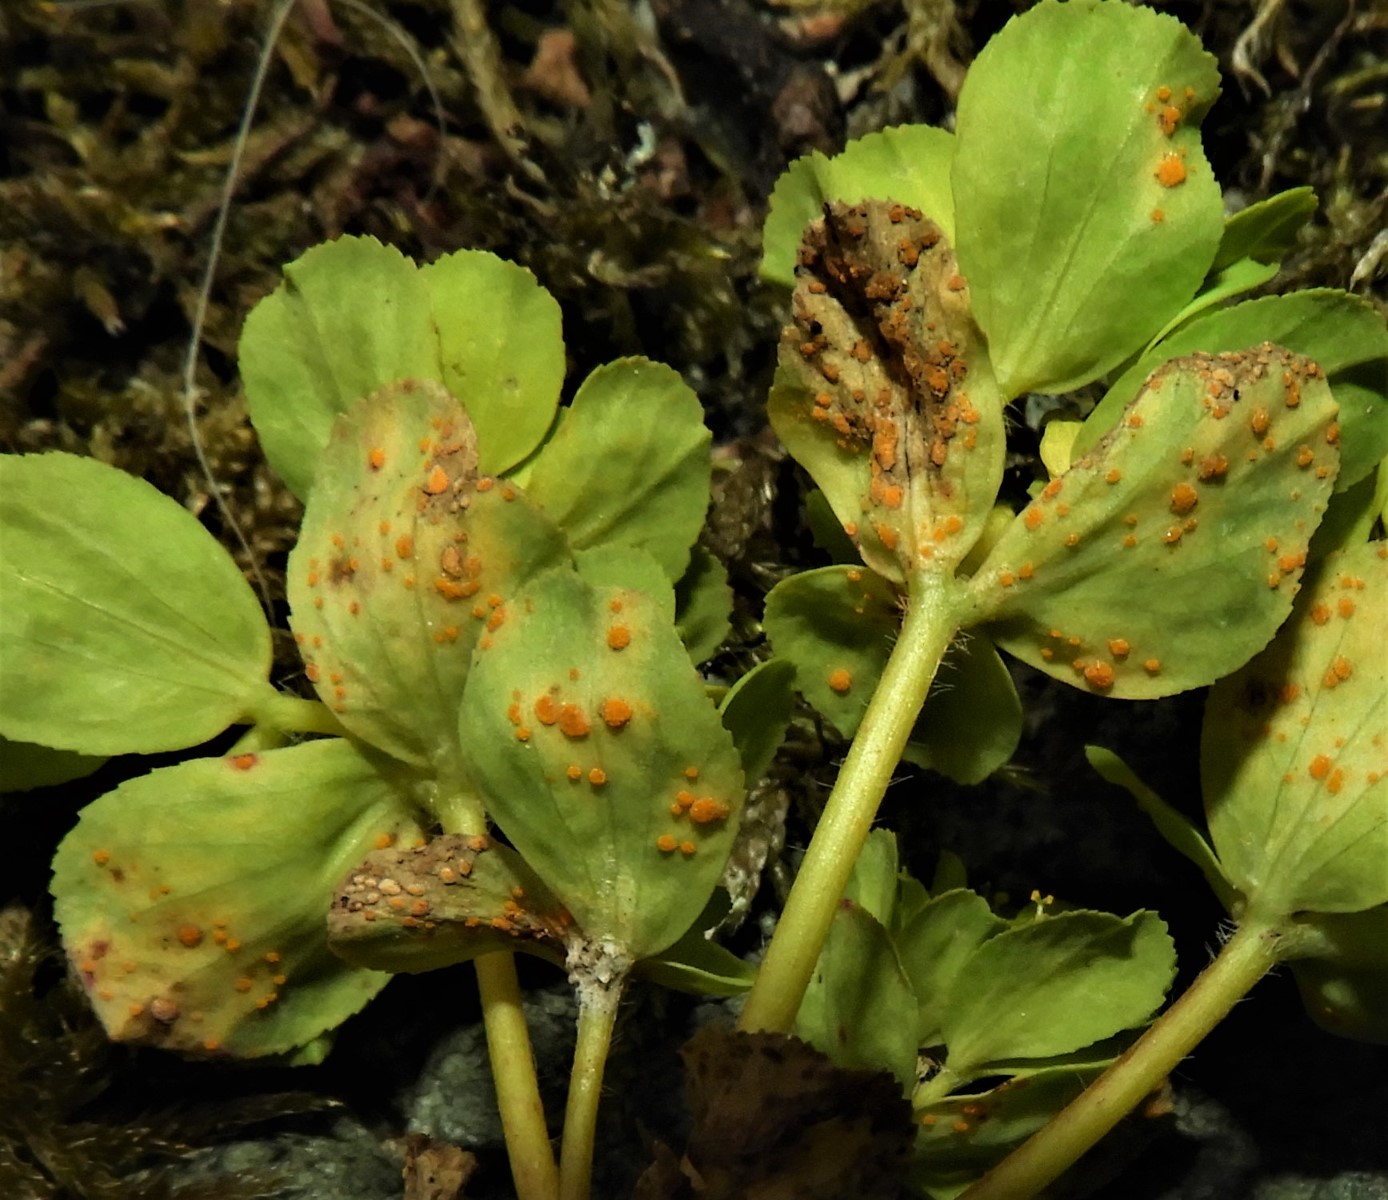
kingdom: Fungi
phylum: Basidiomycota
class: Pucciniomycetes
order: Pucciniales
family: Melampsoraceae
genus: Melampsora
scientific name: Melampsora euphorbiae
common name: vortemælk-skorperust
